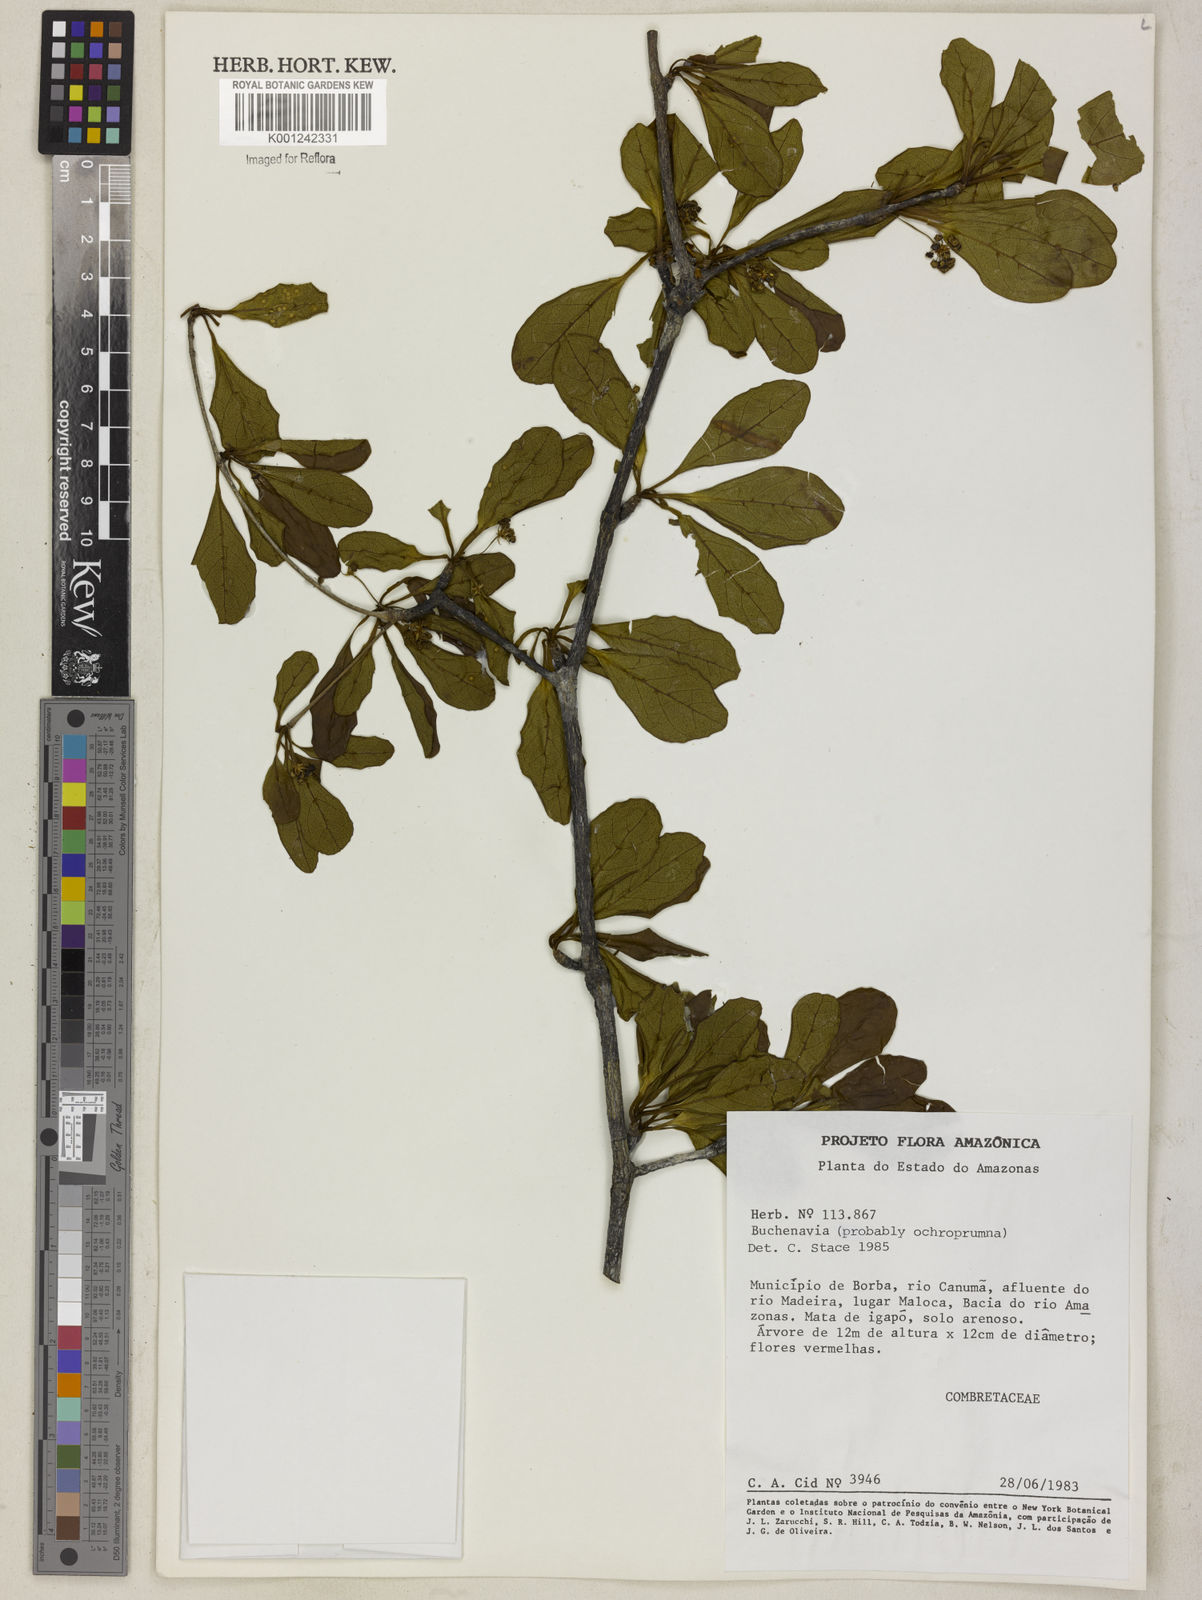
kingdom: Plantae
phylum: Tracheophyta
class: Magnoliopsida
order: Myrtales
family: Combretaceae
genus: Terminalia
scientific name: Terminalia ochroprumna
